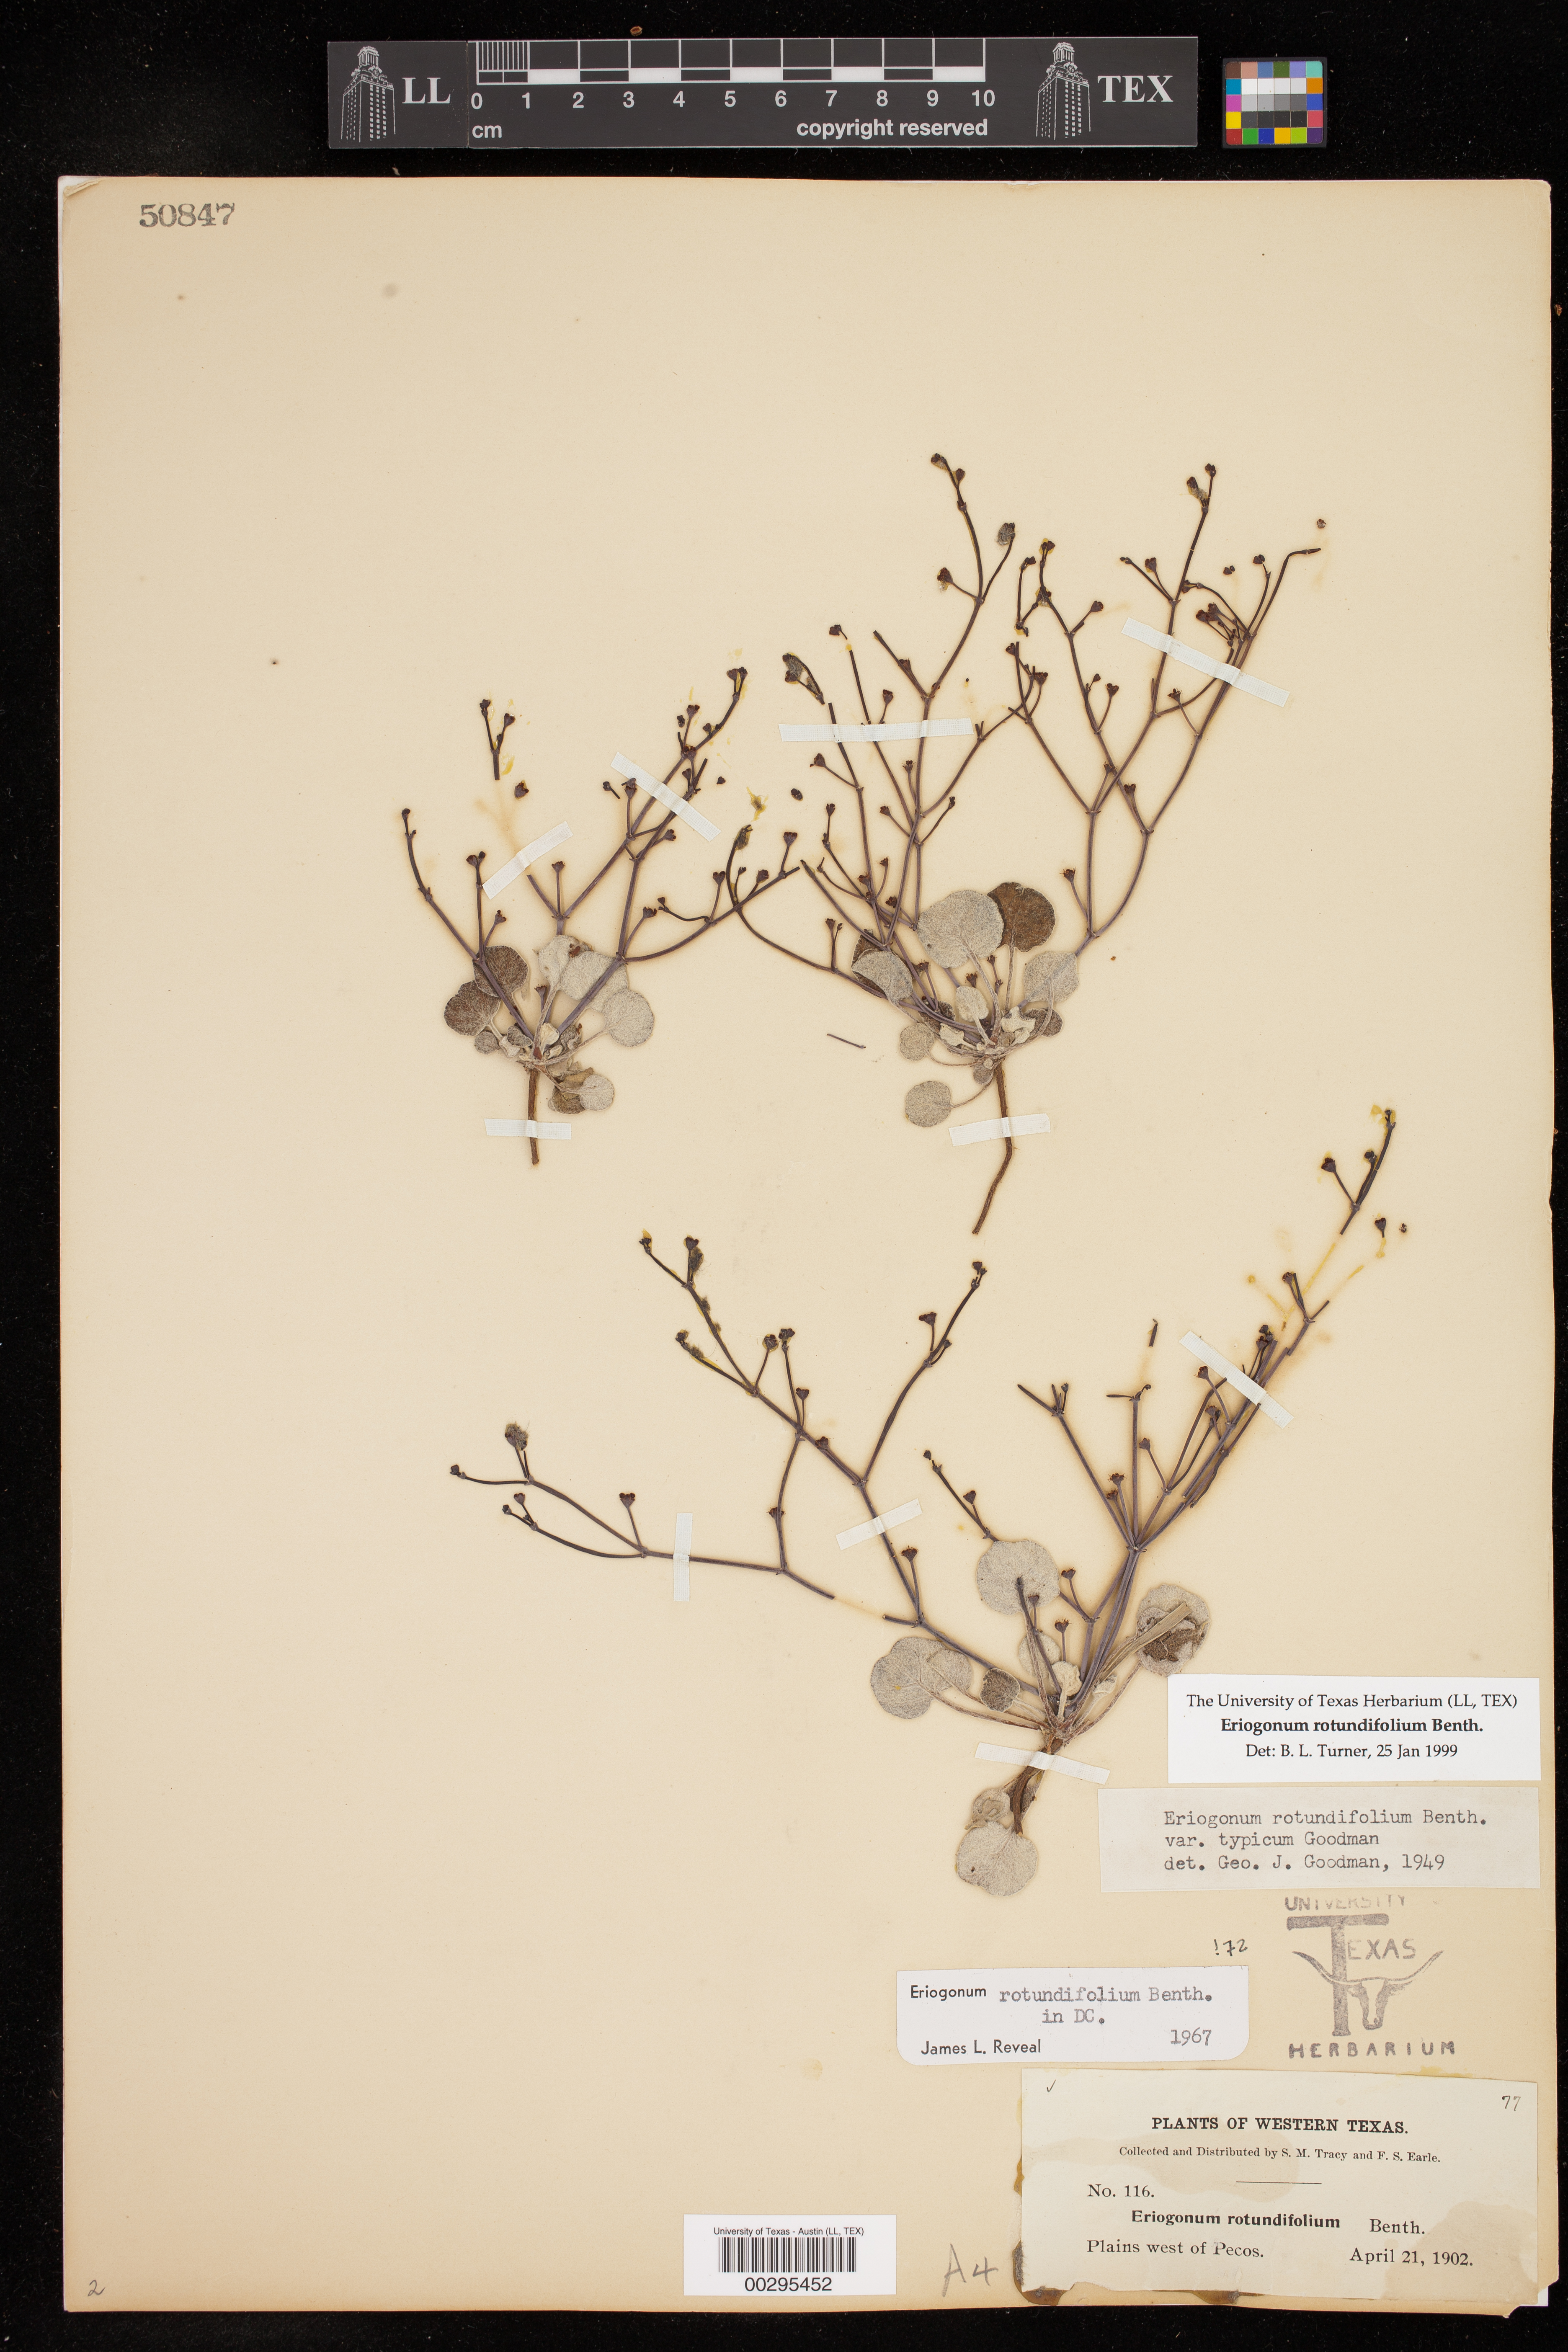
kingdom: Plantae
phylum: Tracheophyta
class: Magnoliopsida
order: Caryophyllales
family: Polygonaceae
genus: Eriogonum
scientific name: Eriogonum rotundifolium
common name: Round-leaf wild buckwheat
